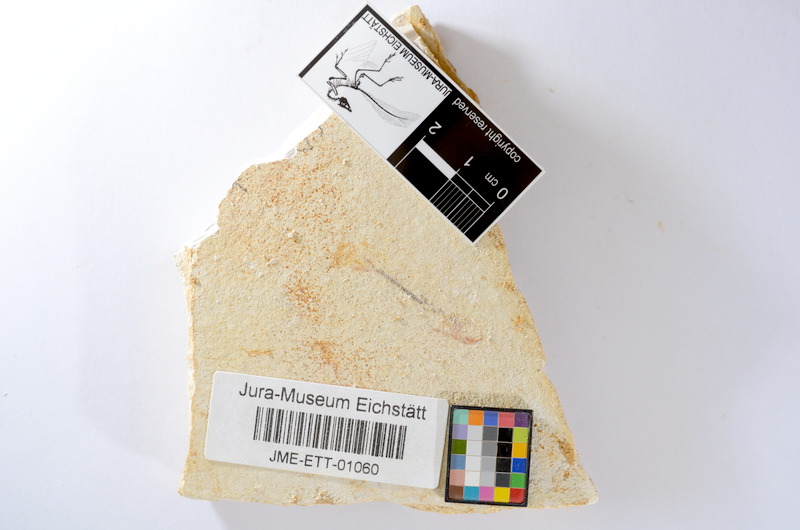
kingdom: Animalia
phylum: Chordata
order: Salmoniformes
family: Orthogonikleithridae
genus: Orthogonikleithrus
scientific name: Orthogonikleithrus hoelli
